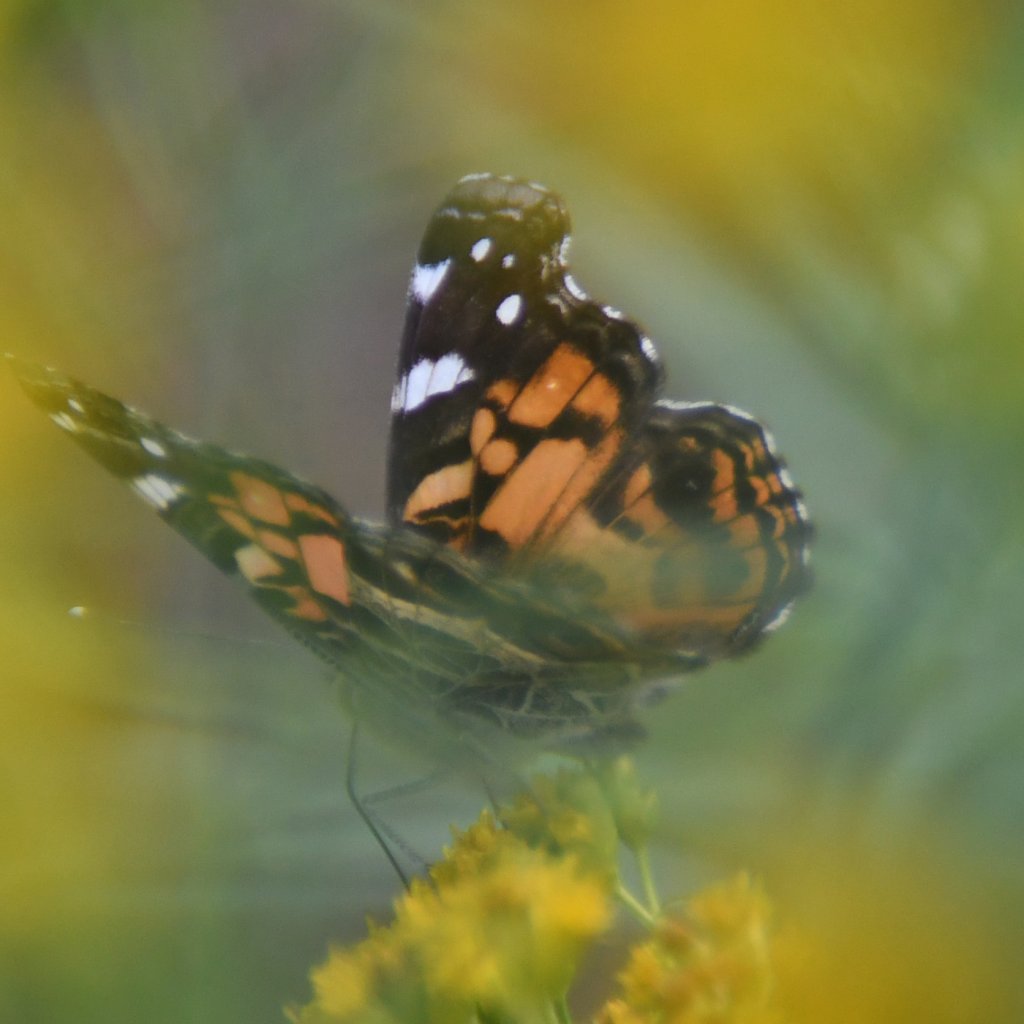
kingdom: Animalia
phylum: Arthropoda
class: Insecta
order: Lepidoptera
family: Nymphalidae
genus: Vanessa
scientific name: Vanessa virginiensis
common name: American Lady
